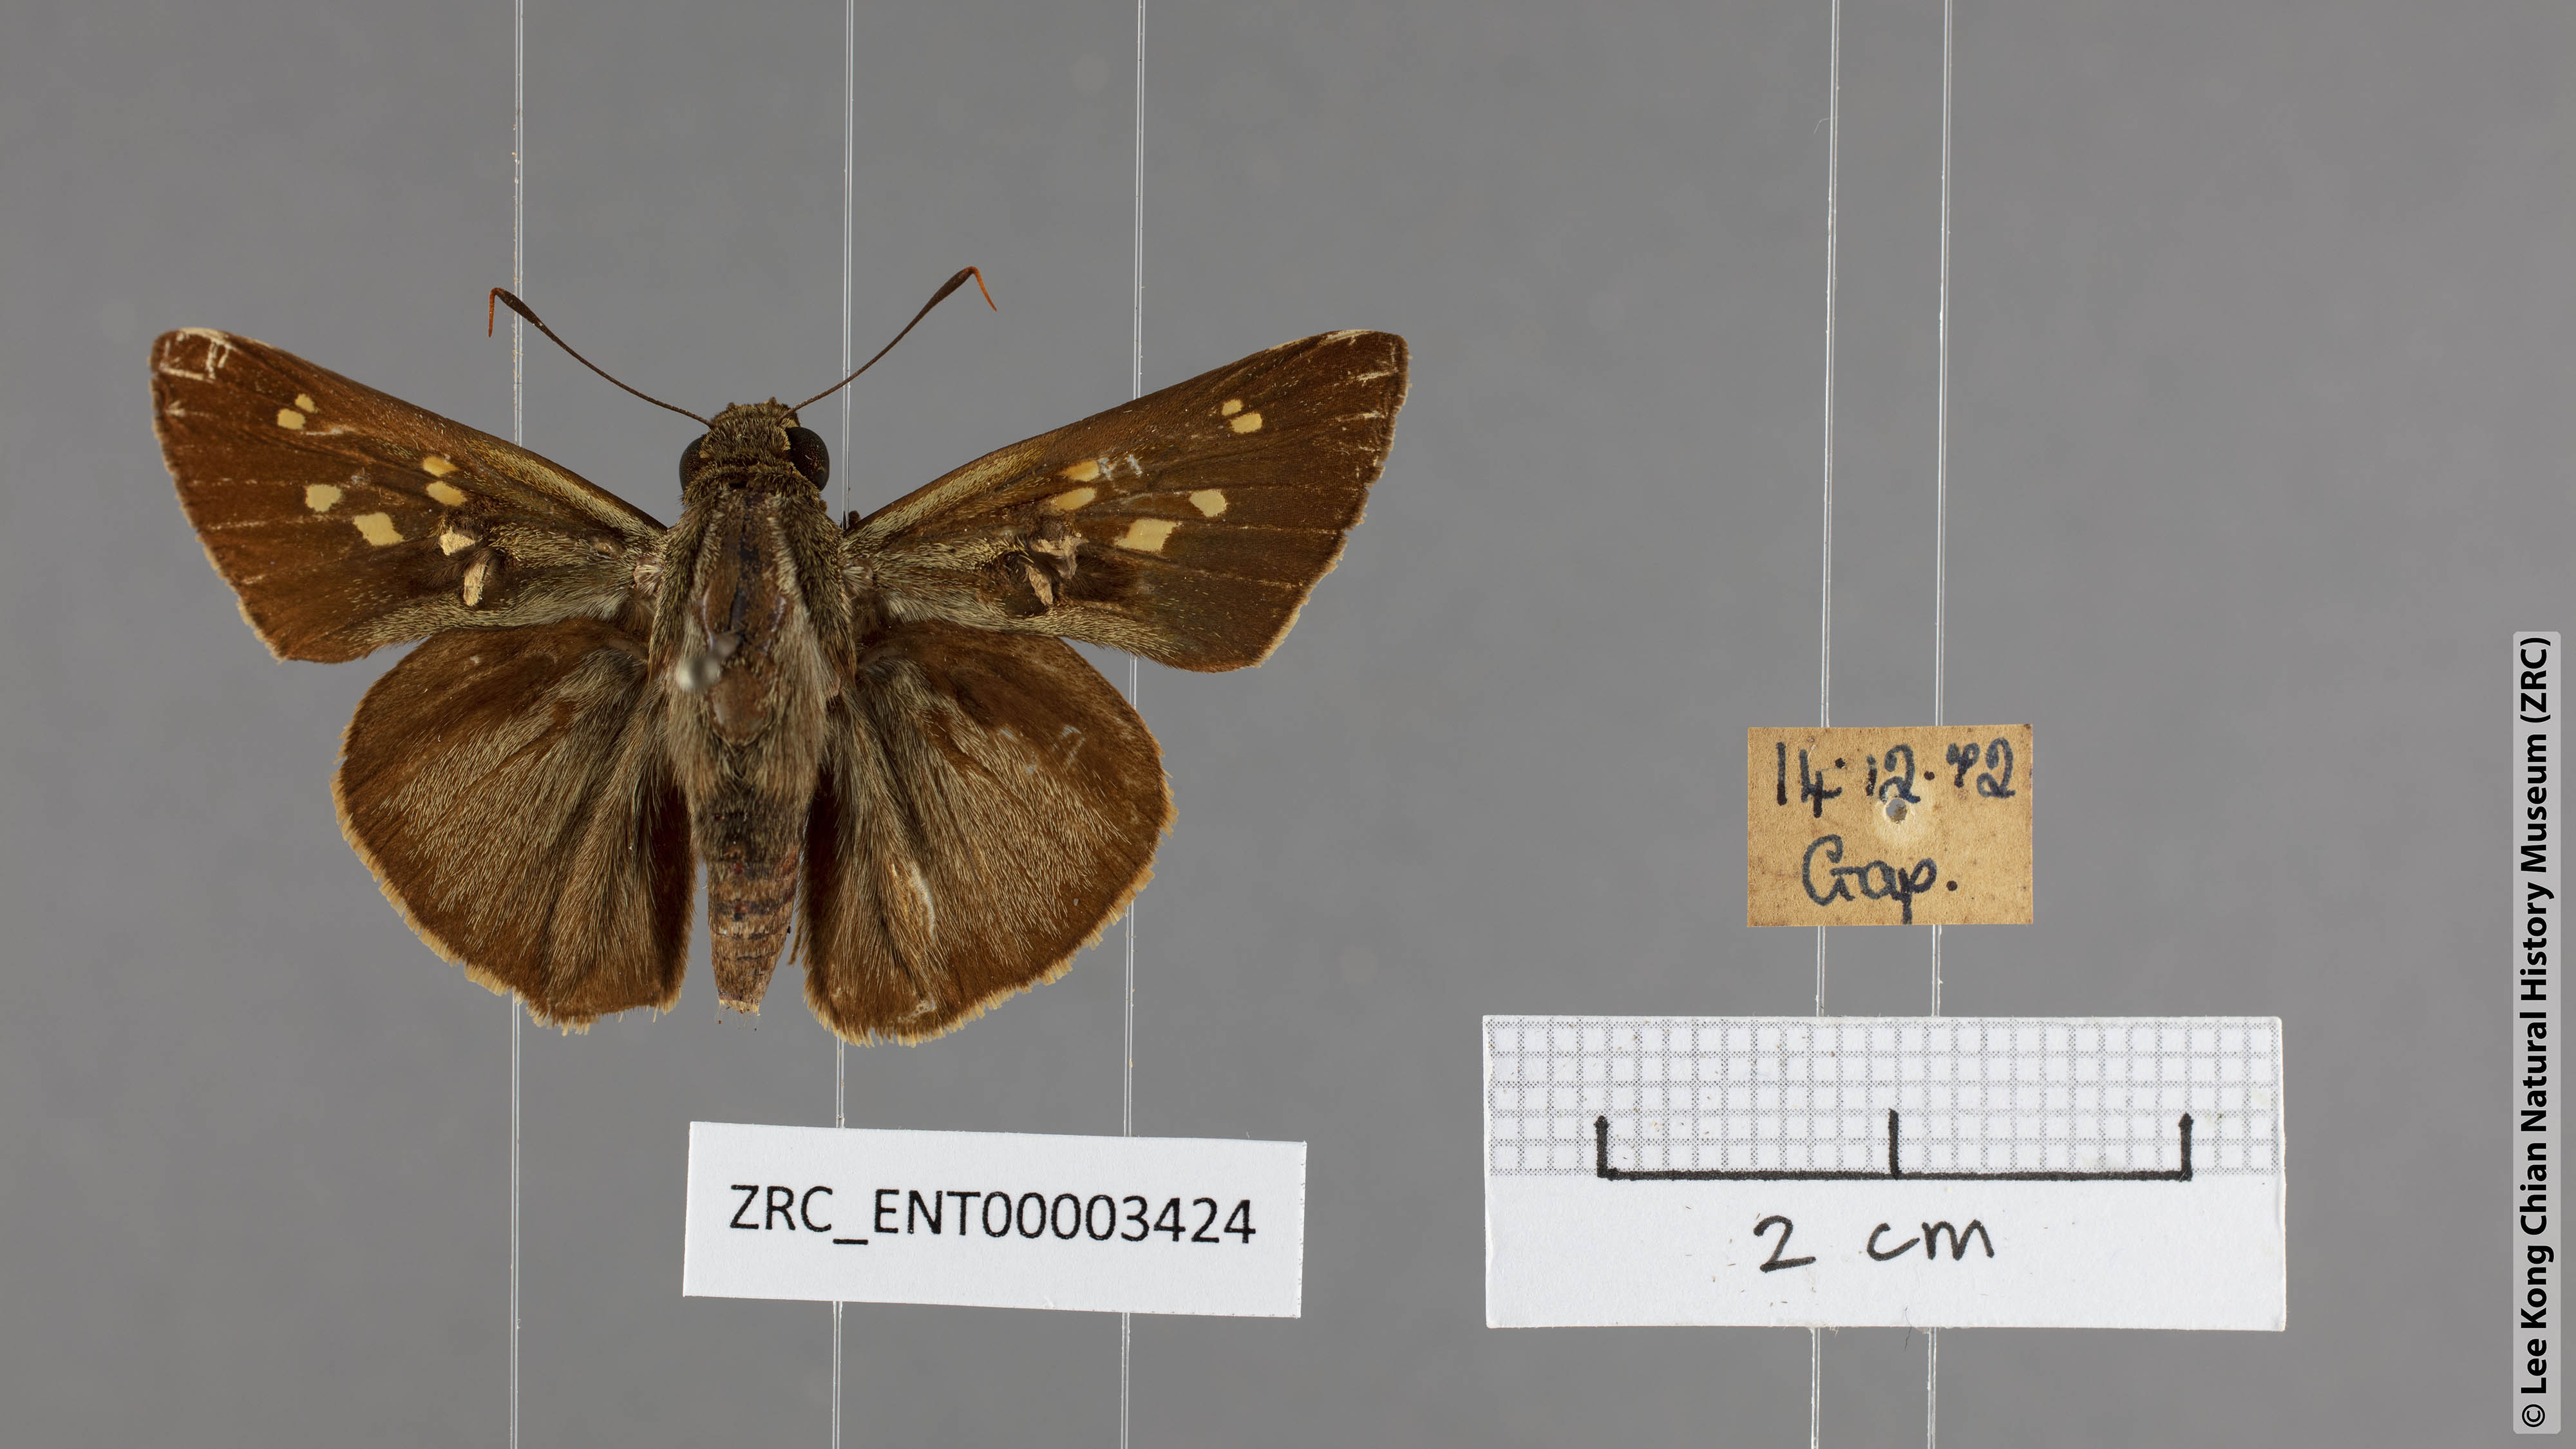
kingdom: Animalia
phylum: Arthropoda
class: Insecta
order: Lepidoptera
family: Hesperiidae
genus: Pithauria
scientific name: Pithauria marsena
